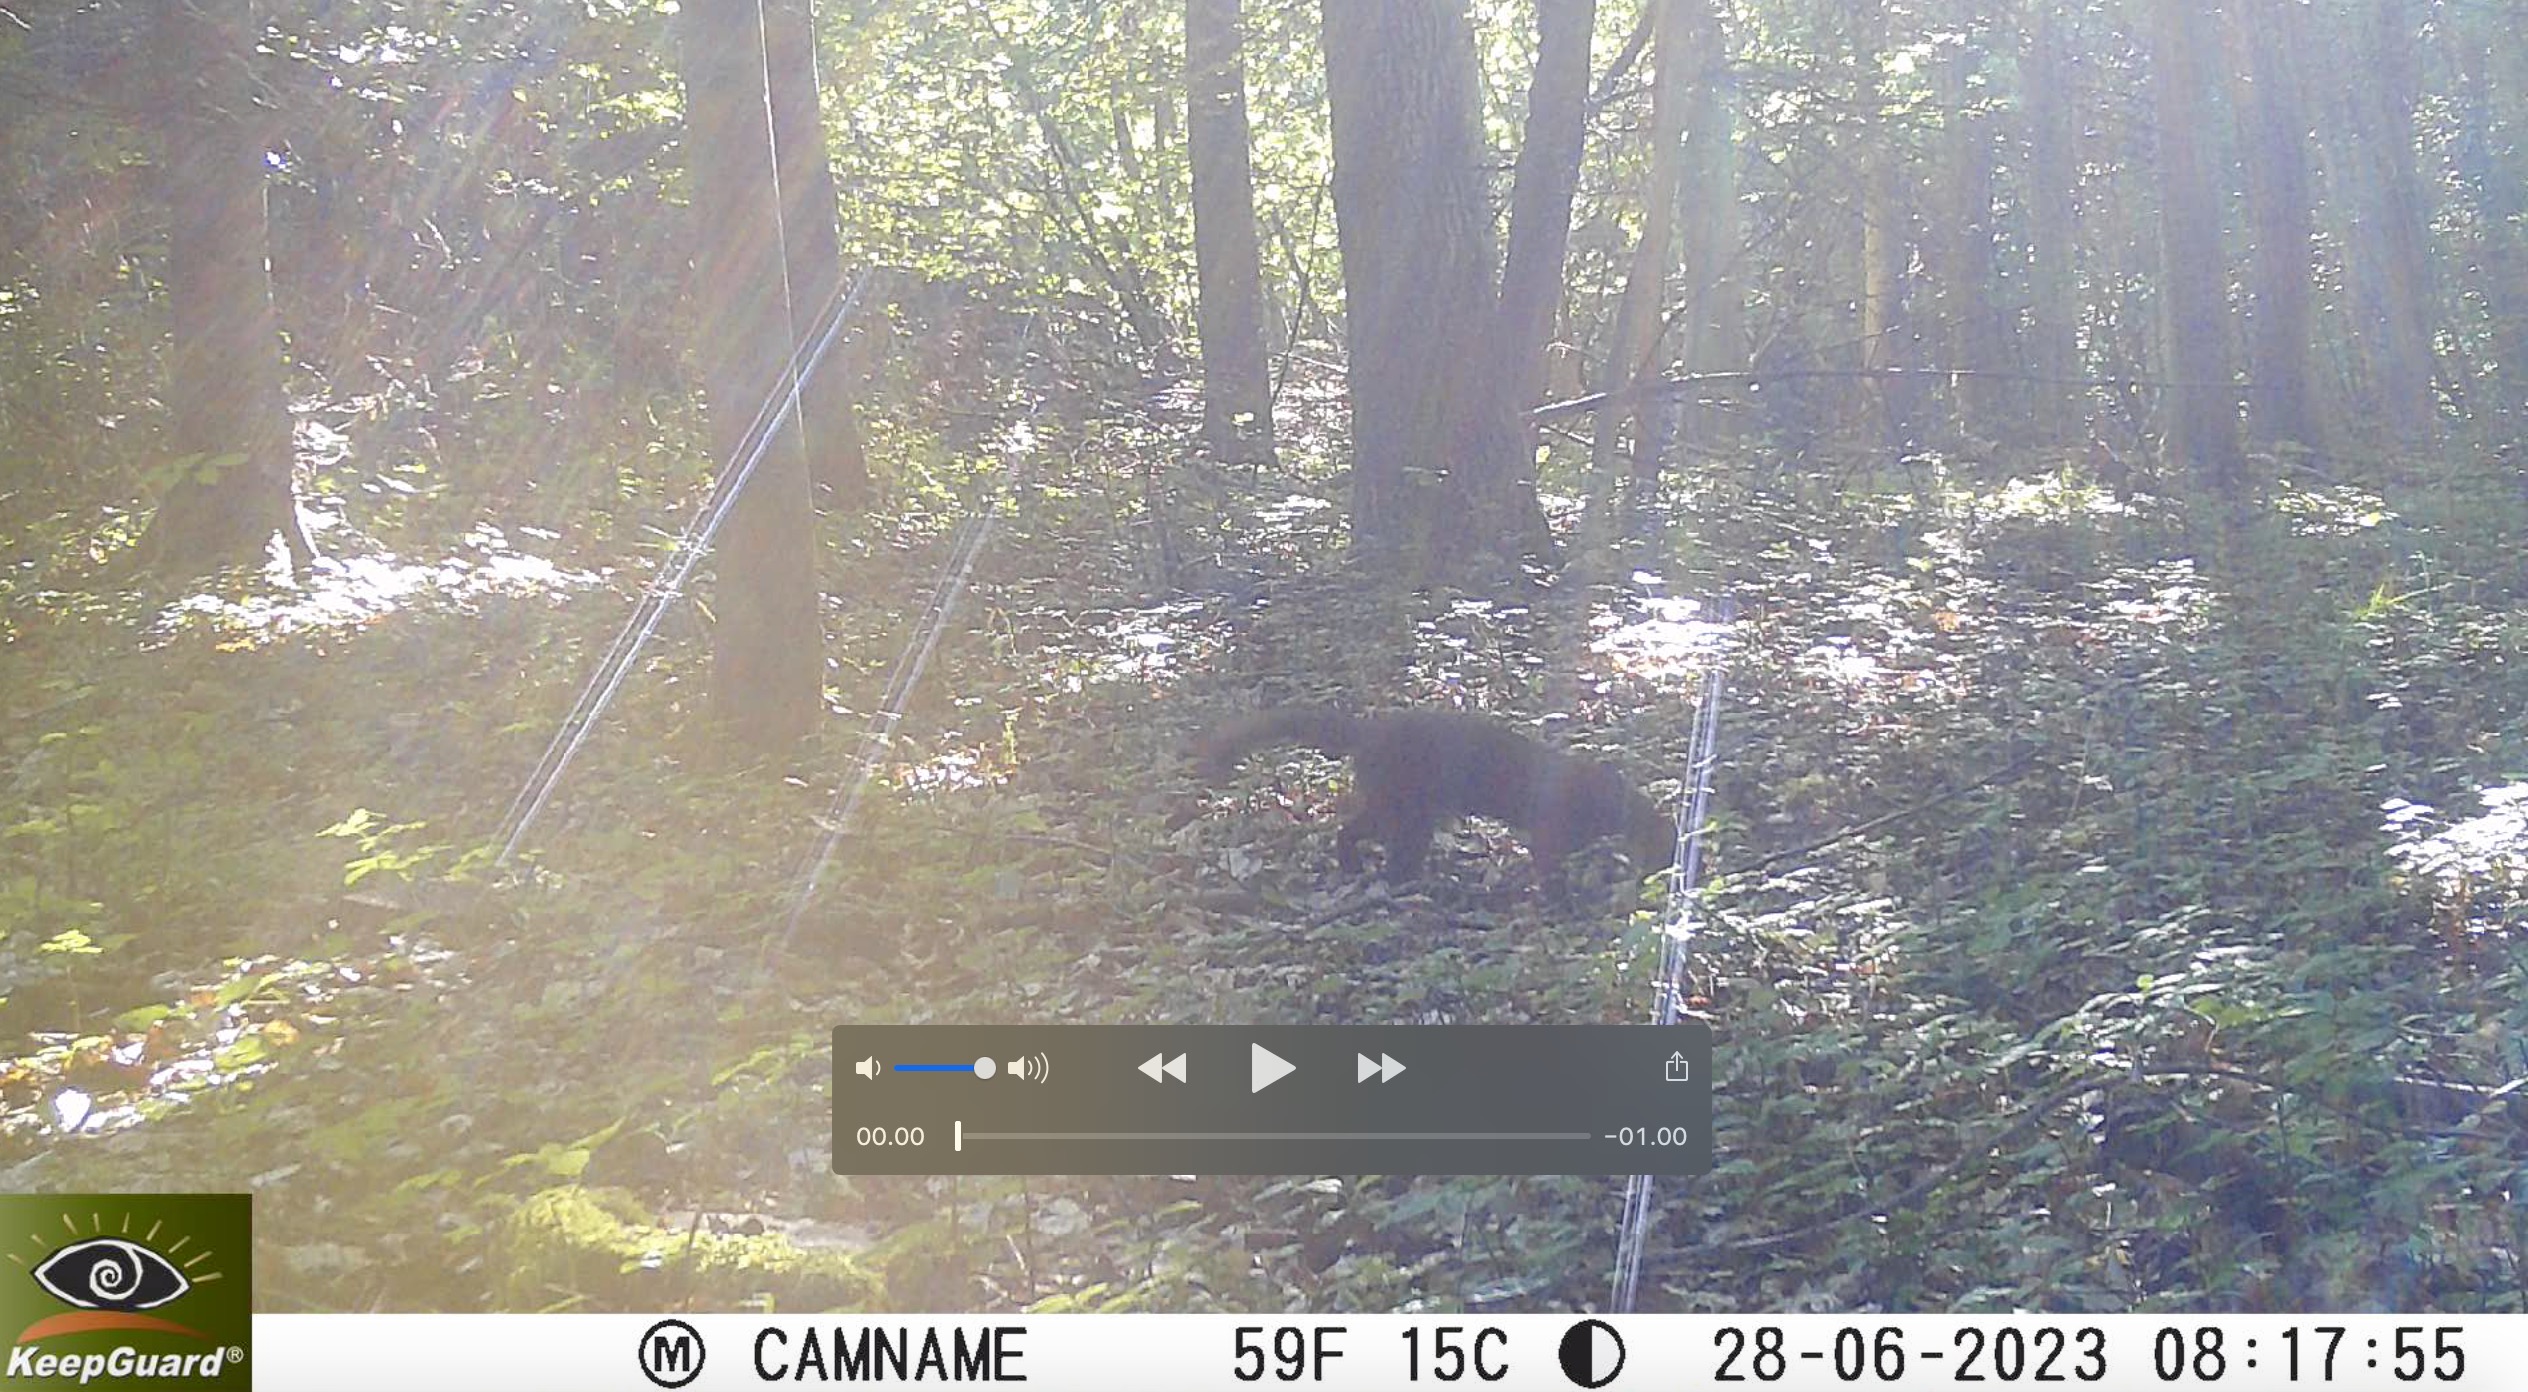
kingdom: Animalia
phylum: Chordata
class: Mammalia
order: Carnivora
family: Mustelidae
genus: Martes
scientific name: Martes martes
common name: Skovmår
